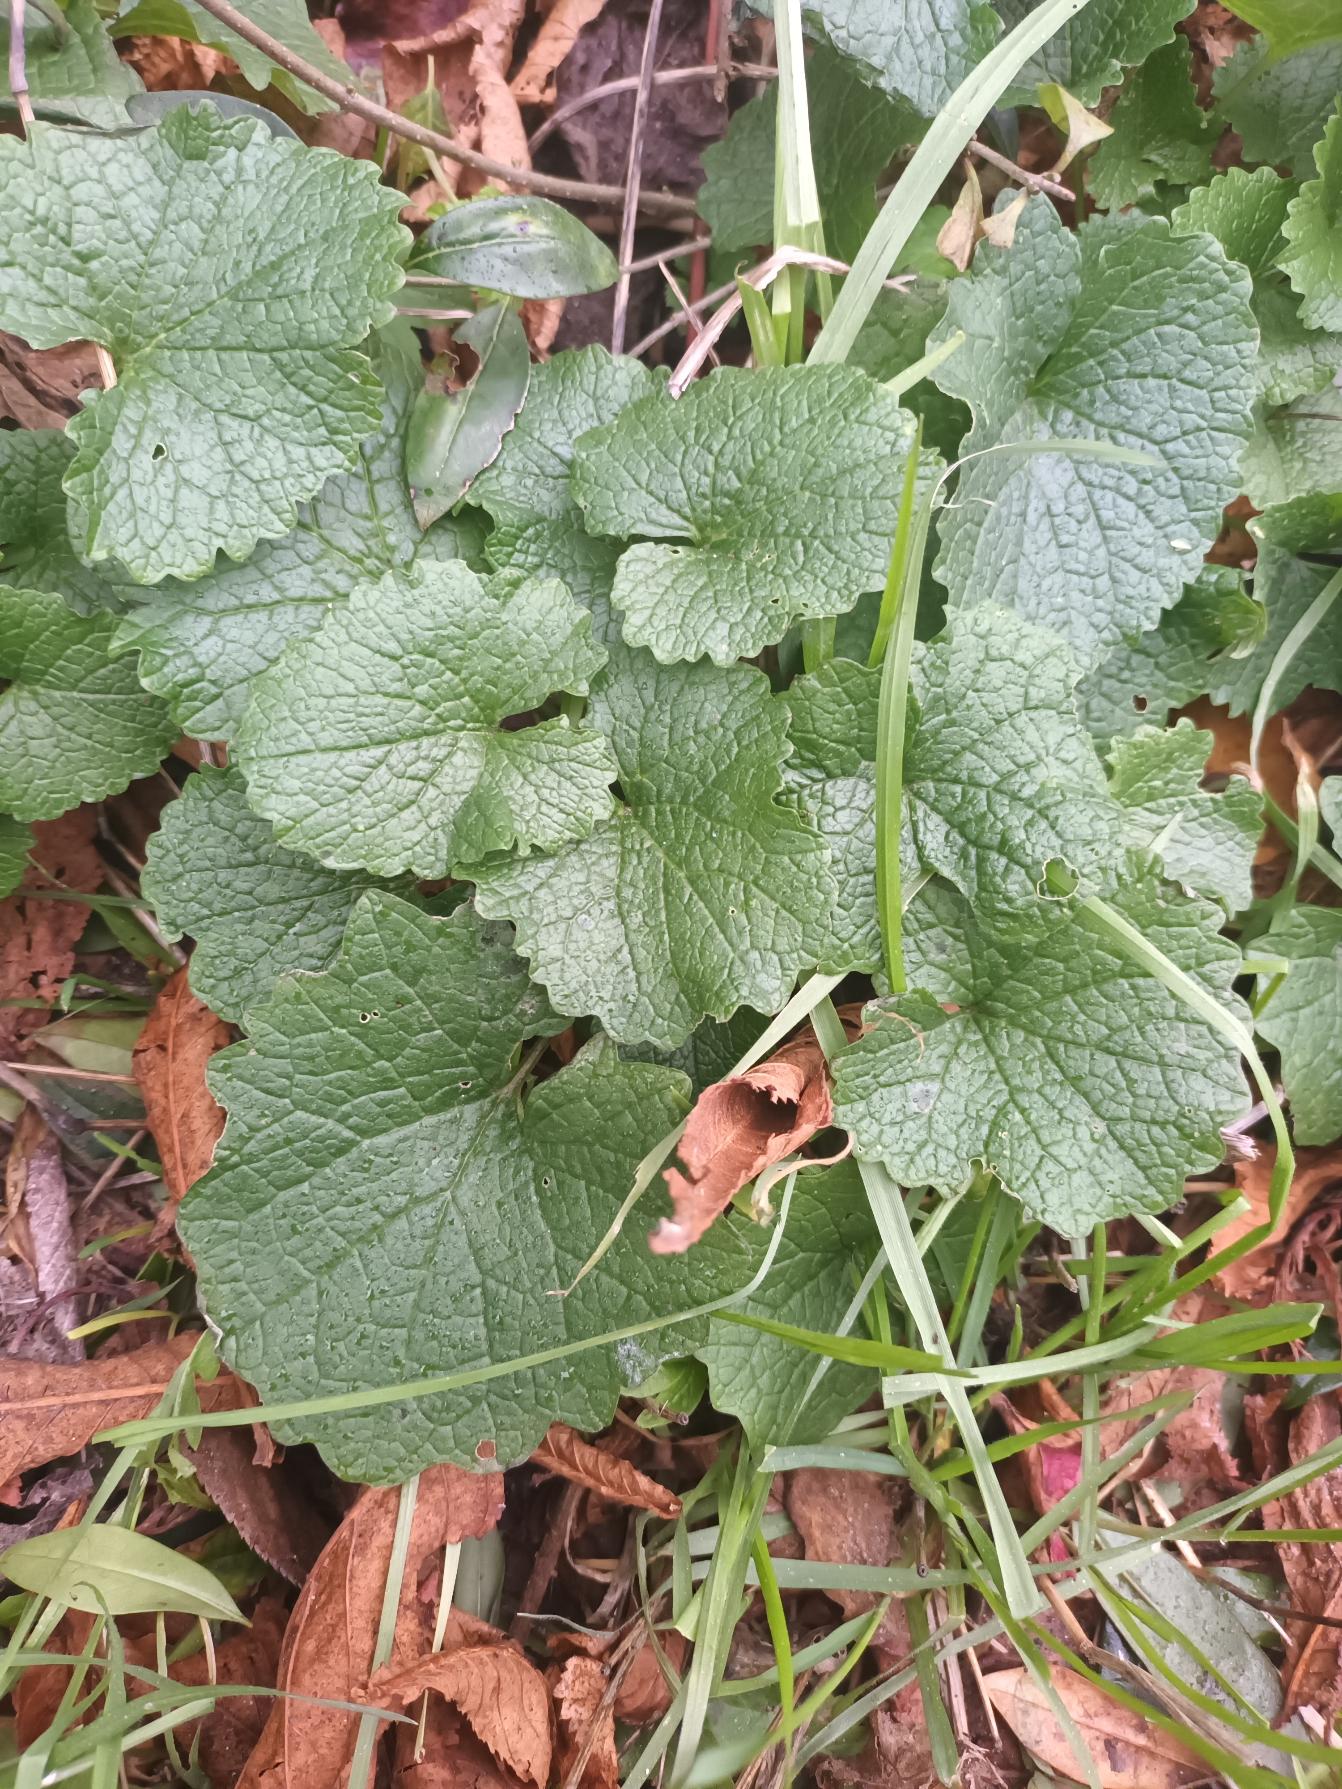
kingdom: Plantae
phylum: Tracheophyta
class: Magnoliopsida
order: Brassicales
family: Brassicaceae
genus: Alliaria
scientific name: Alliaria petiolata
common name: Løgkarse
